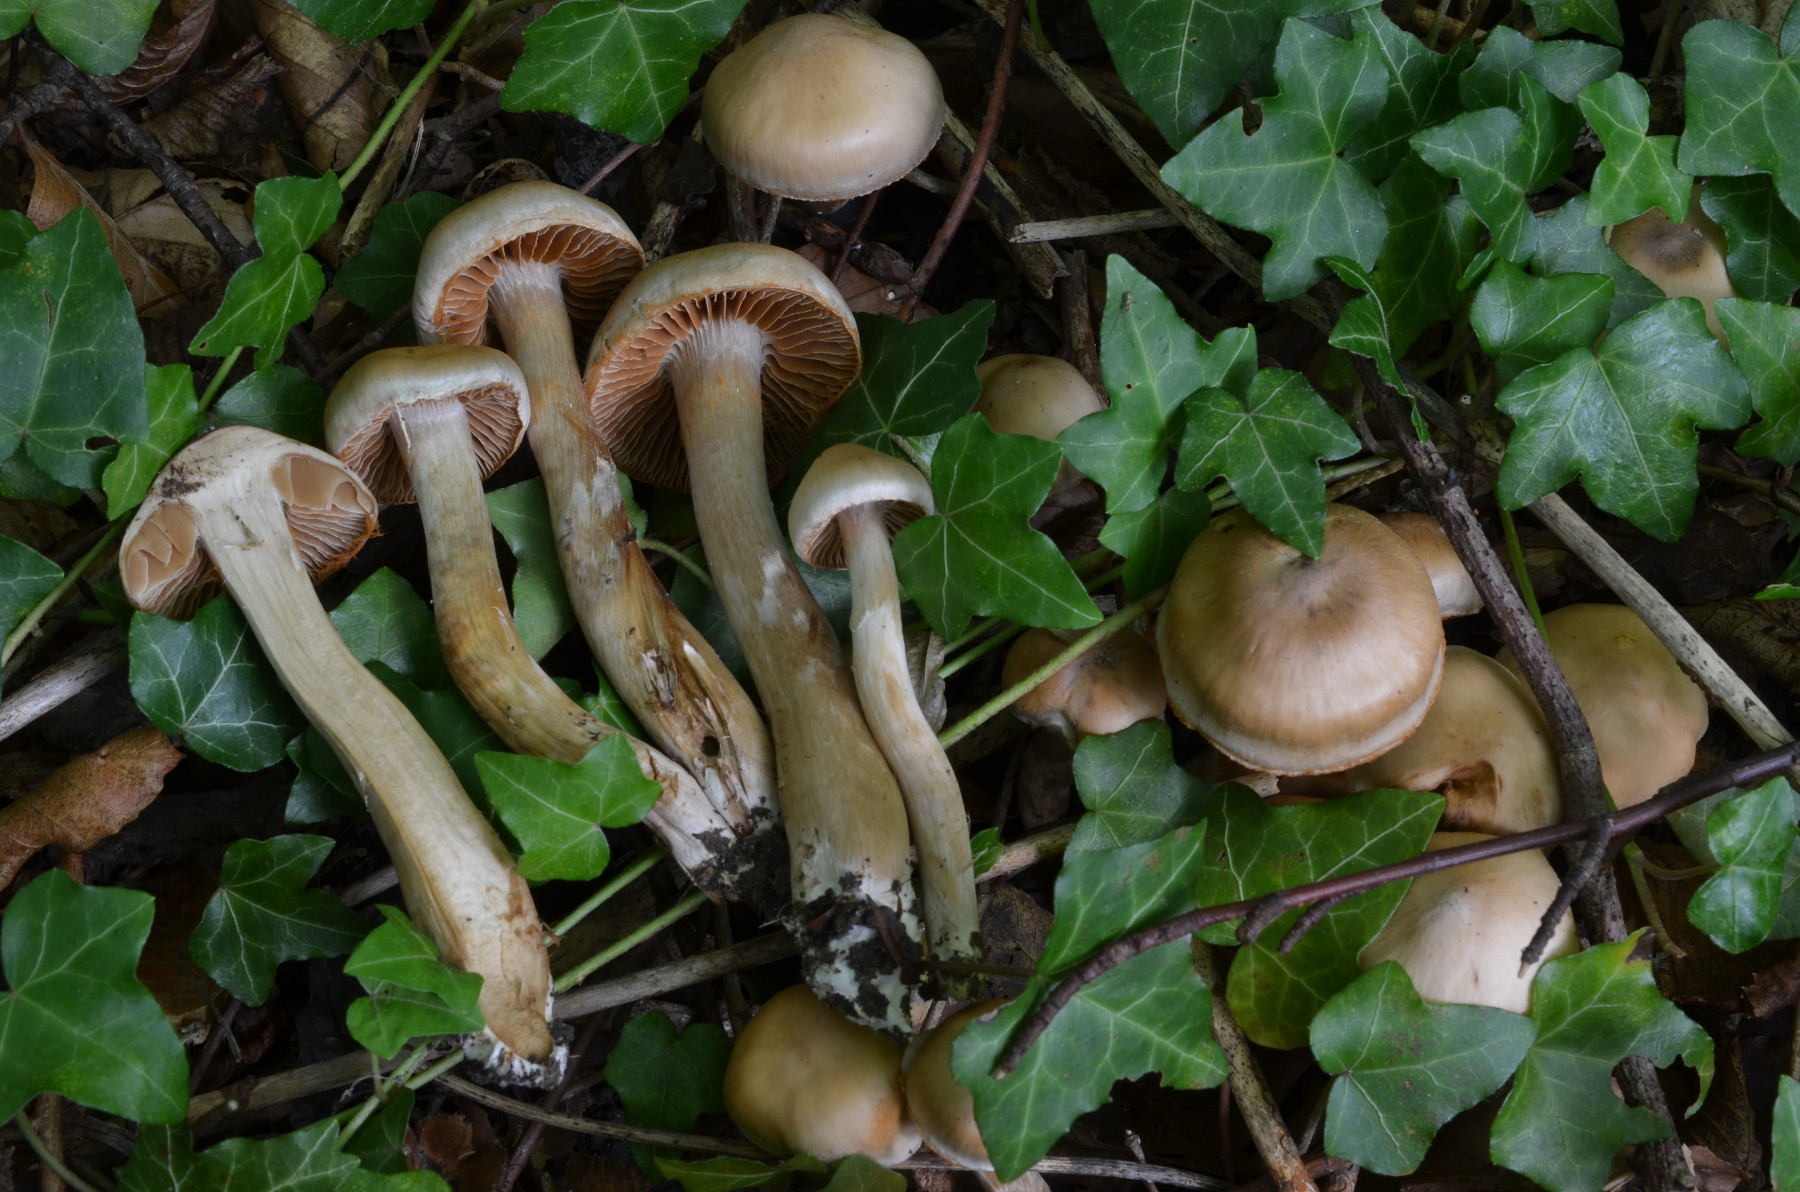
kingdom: Fungi
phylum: Basidiomycota
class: Agaricomycetes
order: Agaricales
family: Cortinariaceae
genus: Cortinarius
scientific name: Cortinarius rubricosus
